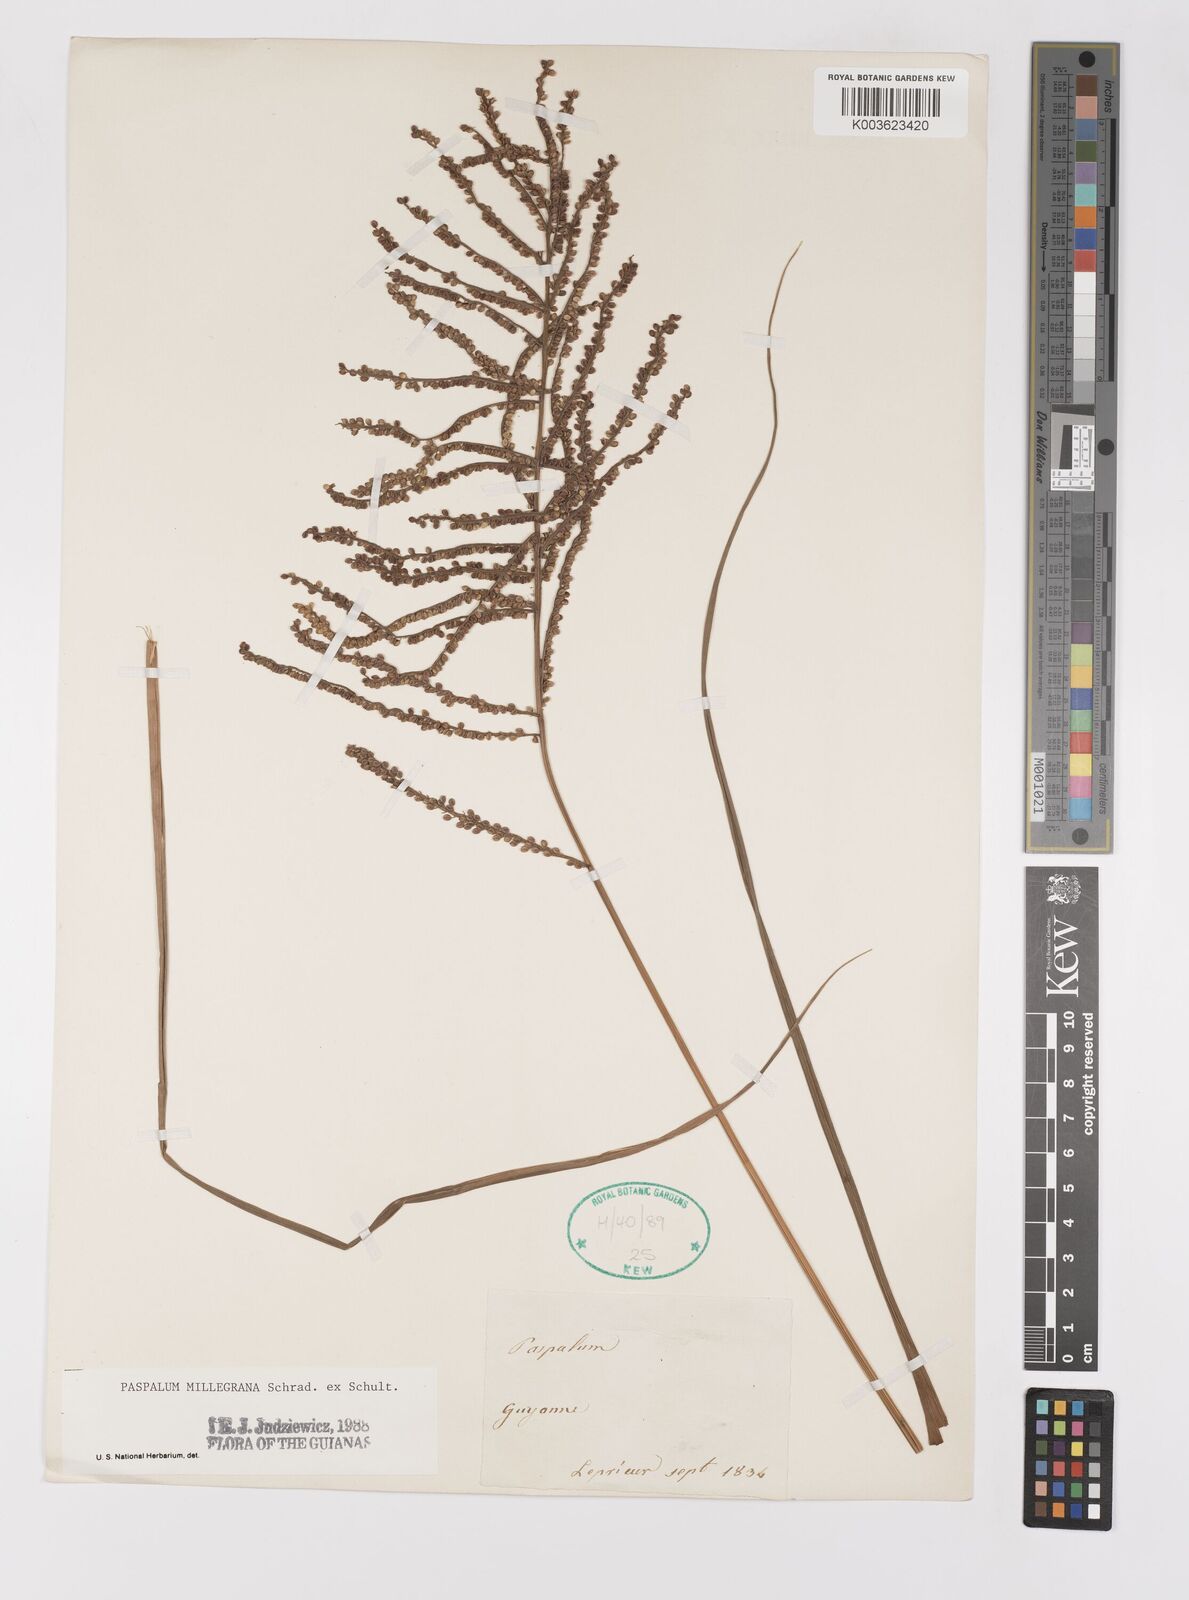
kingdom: Plantae
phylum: Tracheophyta
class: Liliopsida
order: Poales
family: Poaceae
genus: Paspalum
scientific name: Paspalum millegranum
